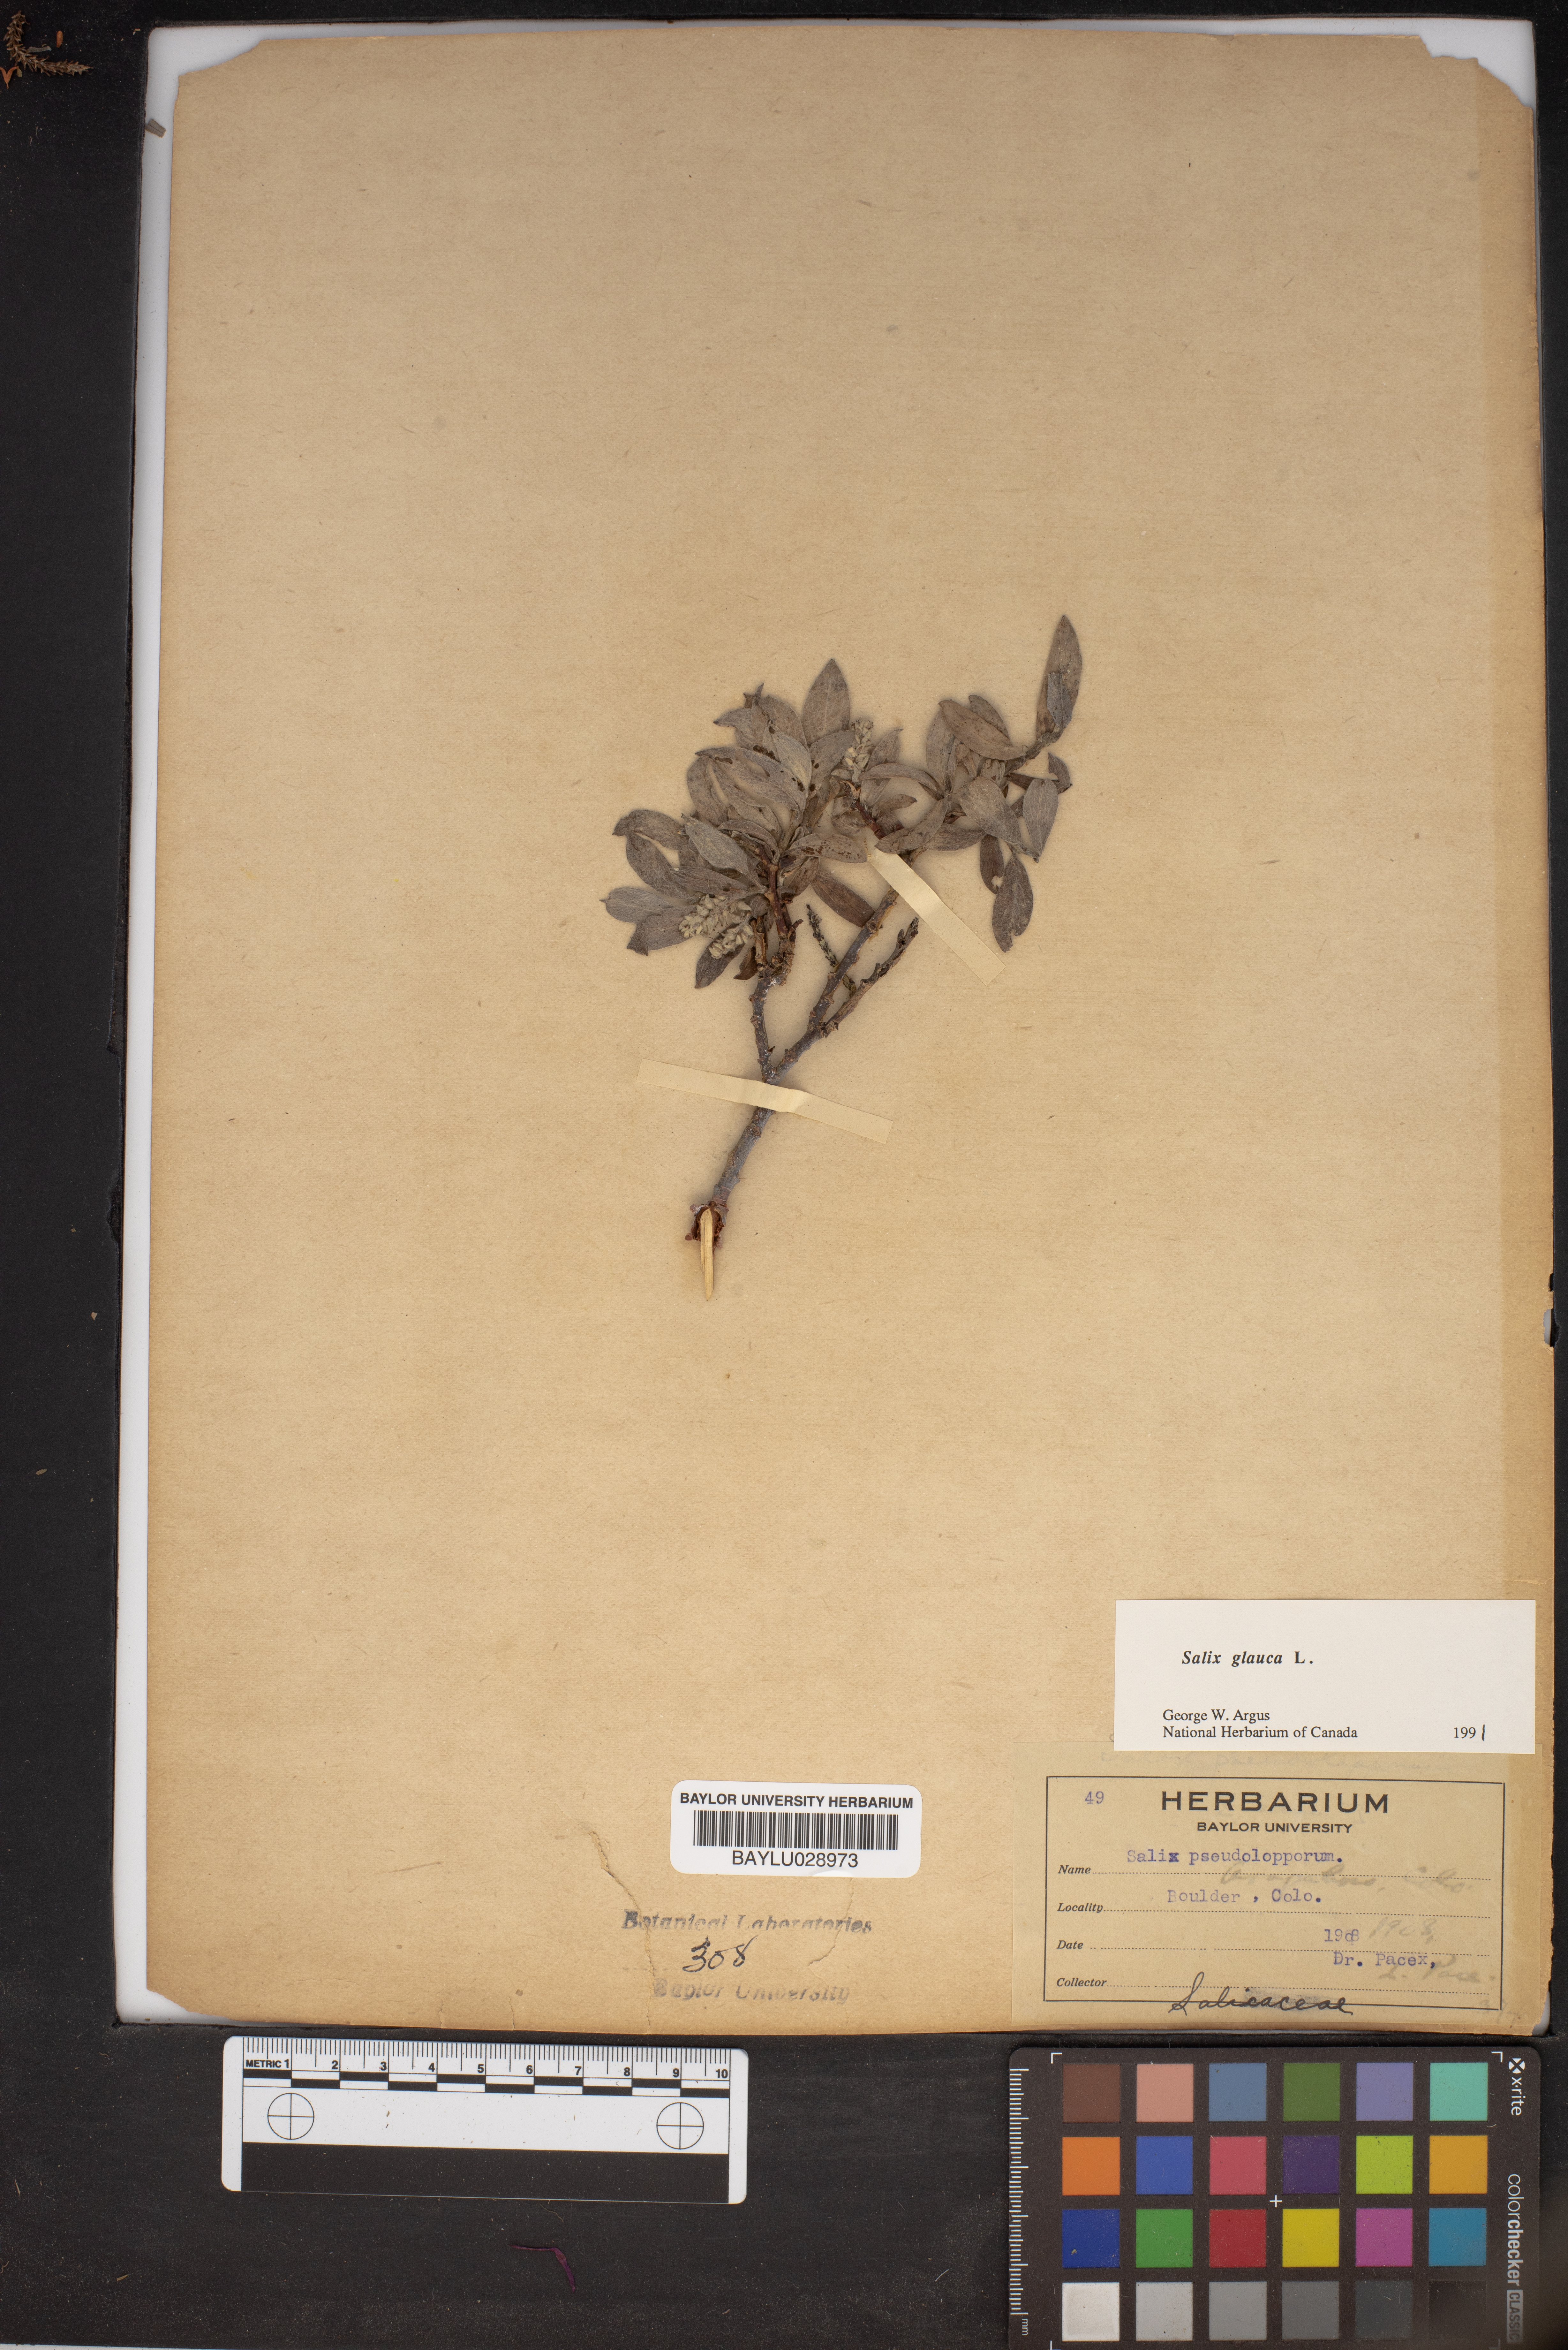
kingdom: Plantae
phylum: Tracheophyta
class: Magnoliopsida
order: Malpighiales
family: Salicaceae
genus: Salix
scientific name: Salix glauca
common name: Glaucous willow
